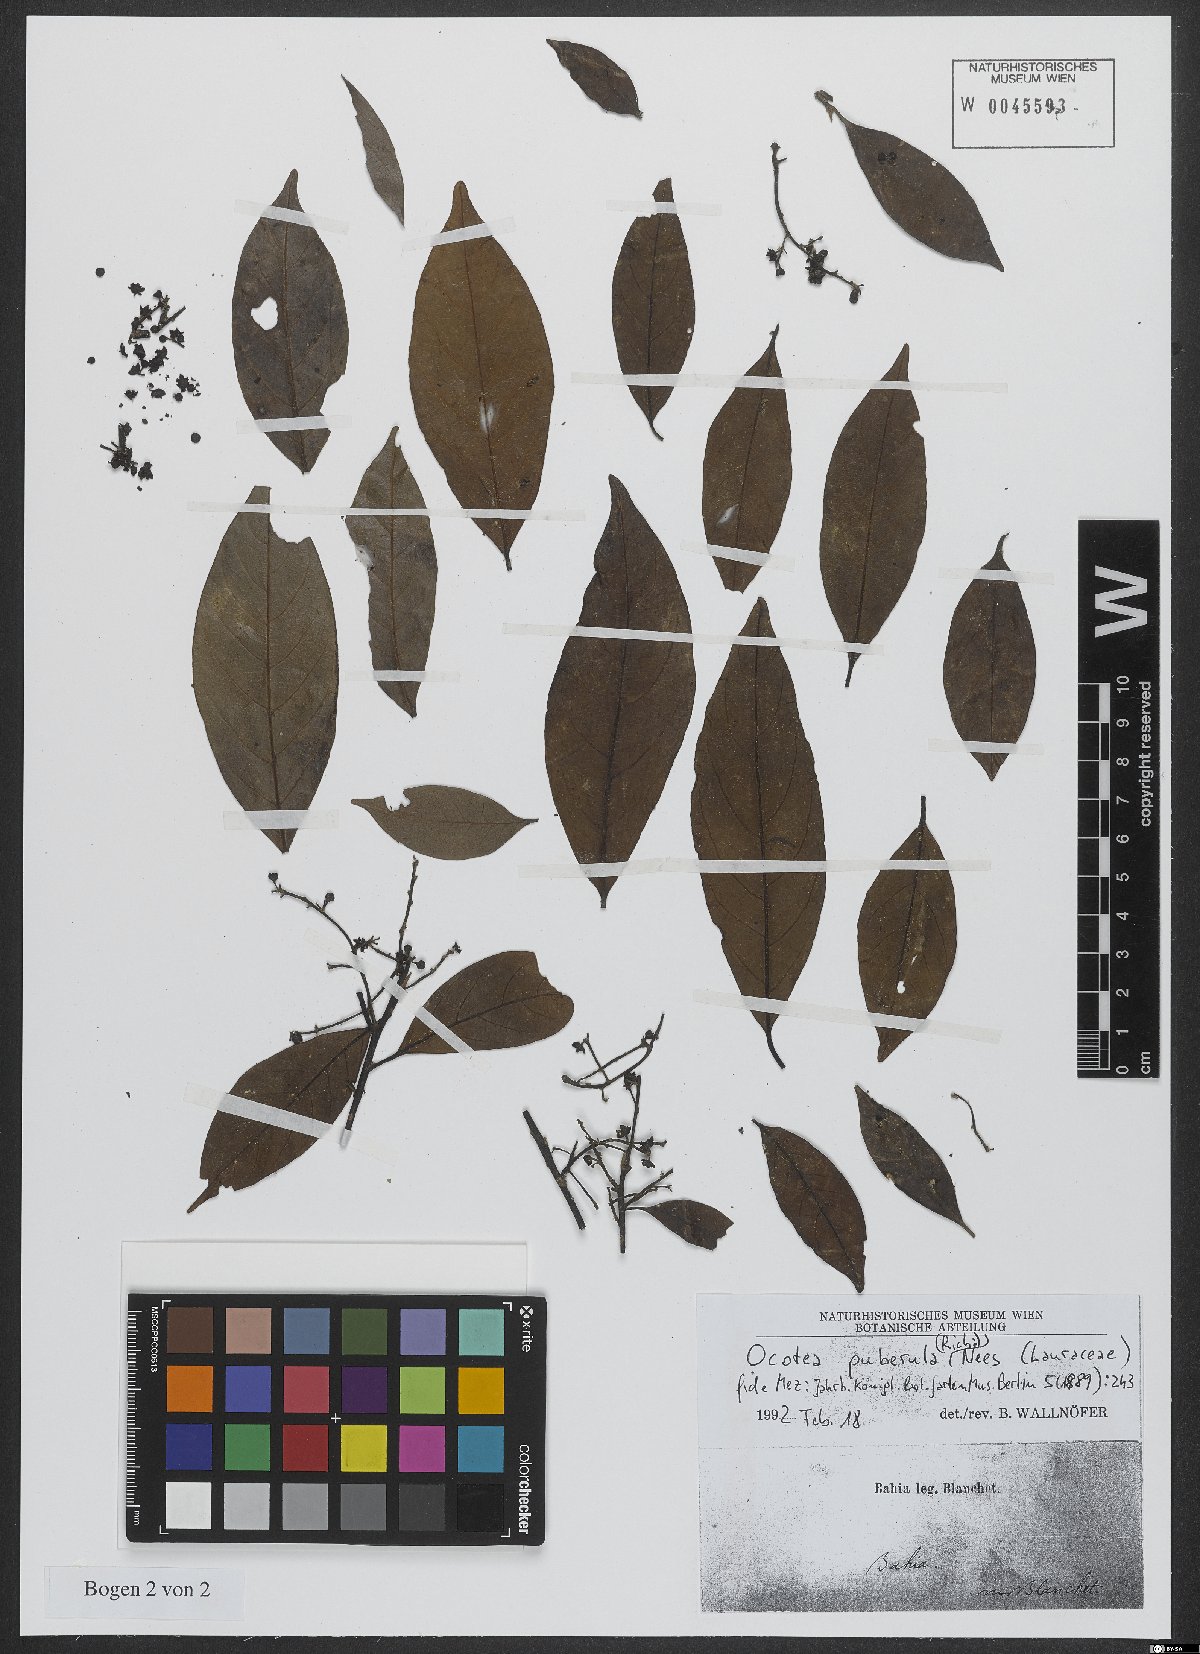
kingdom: Plantae
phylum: Tracheophyta
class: Magnoliopsida
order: Laurales
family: Lauraceae
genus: Ocotea
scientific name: Ocotea puberula
